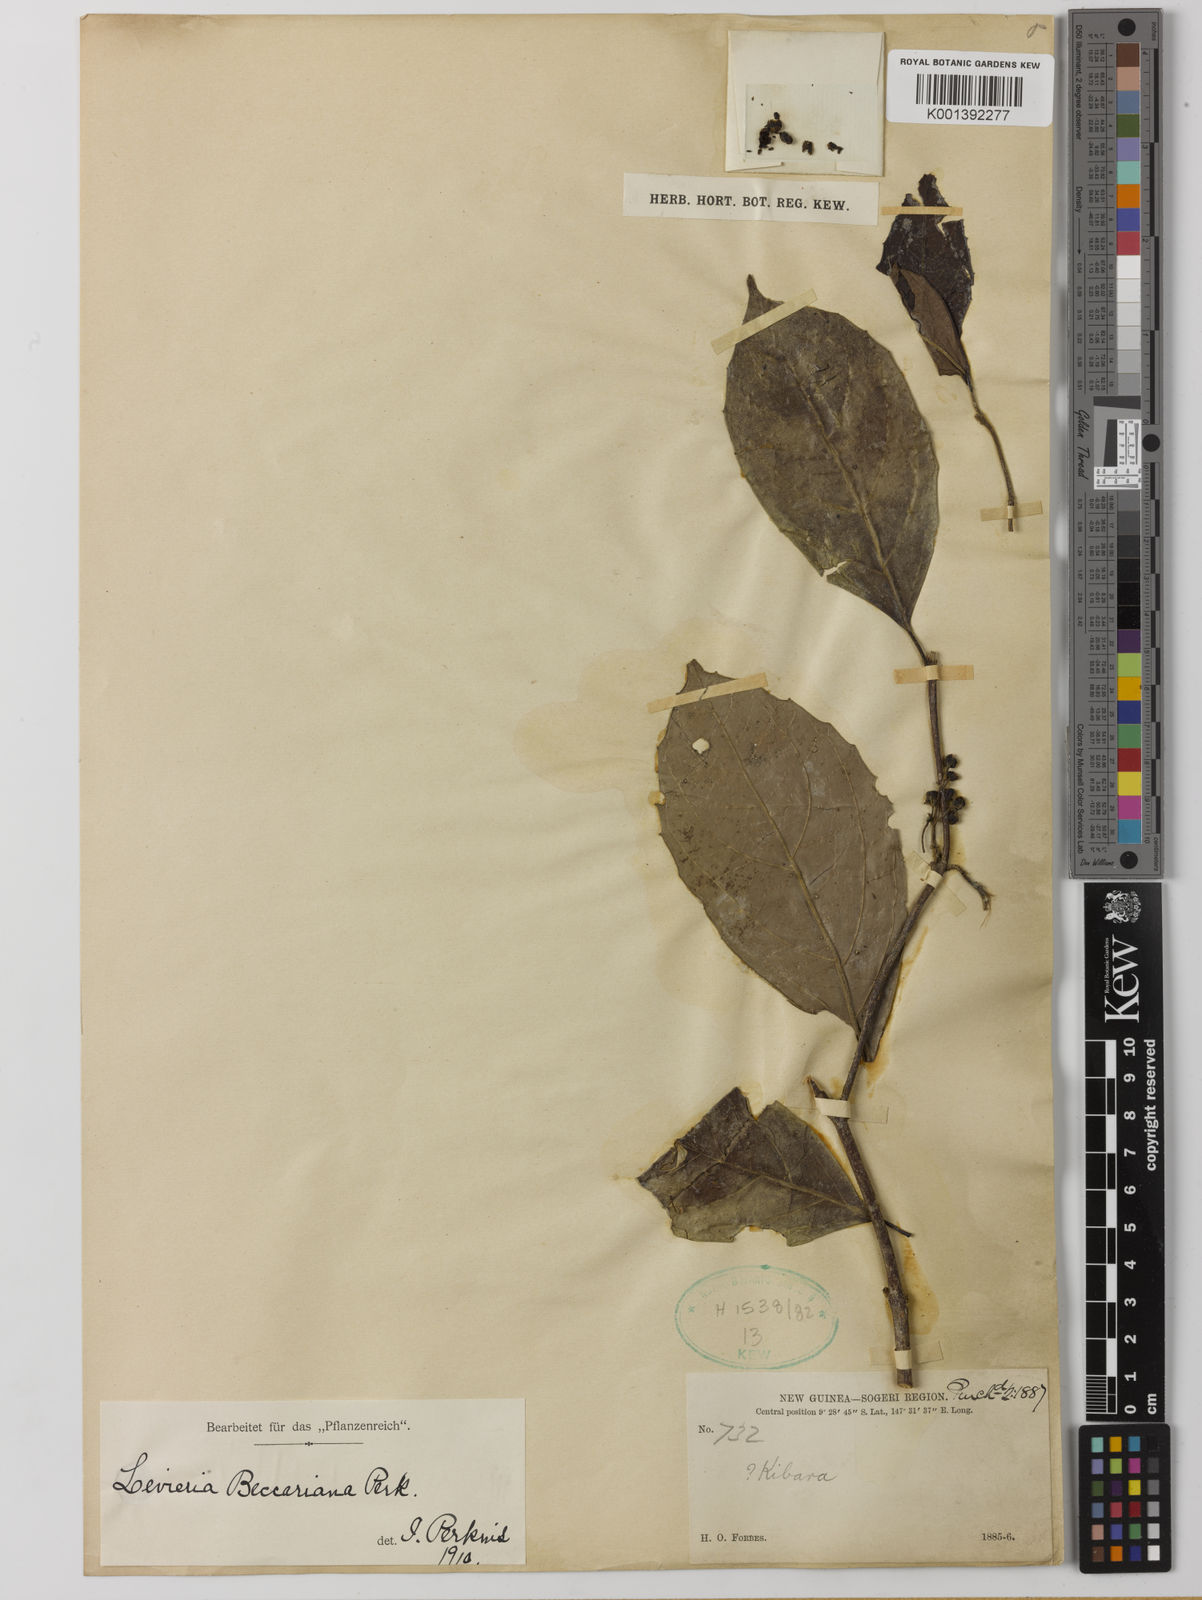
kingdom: Plantae
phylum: Tracheophyta
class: Magnoliopsida
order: Laurales
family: Monimiaceae
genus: Levieria
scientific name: Levieria beccariana
